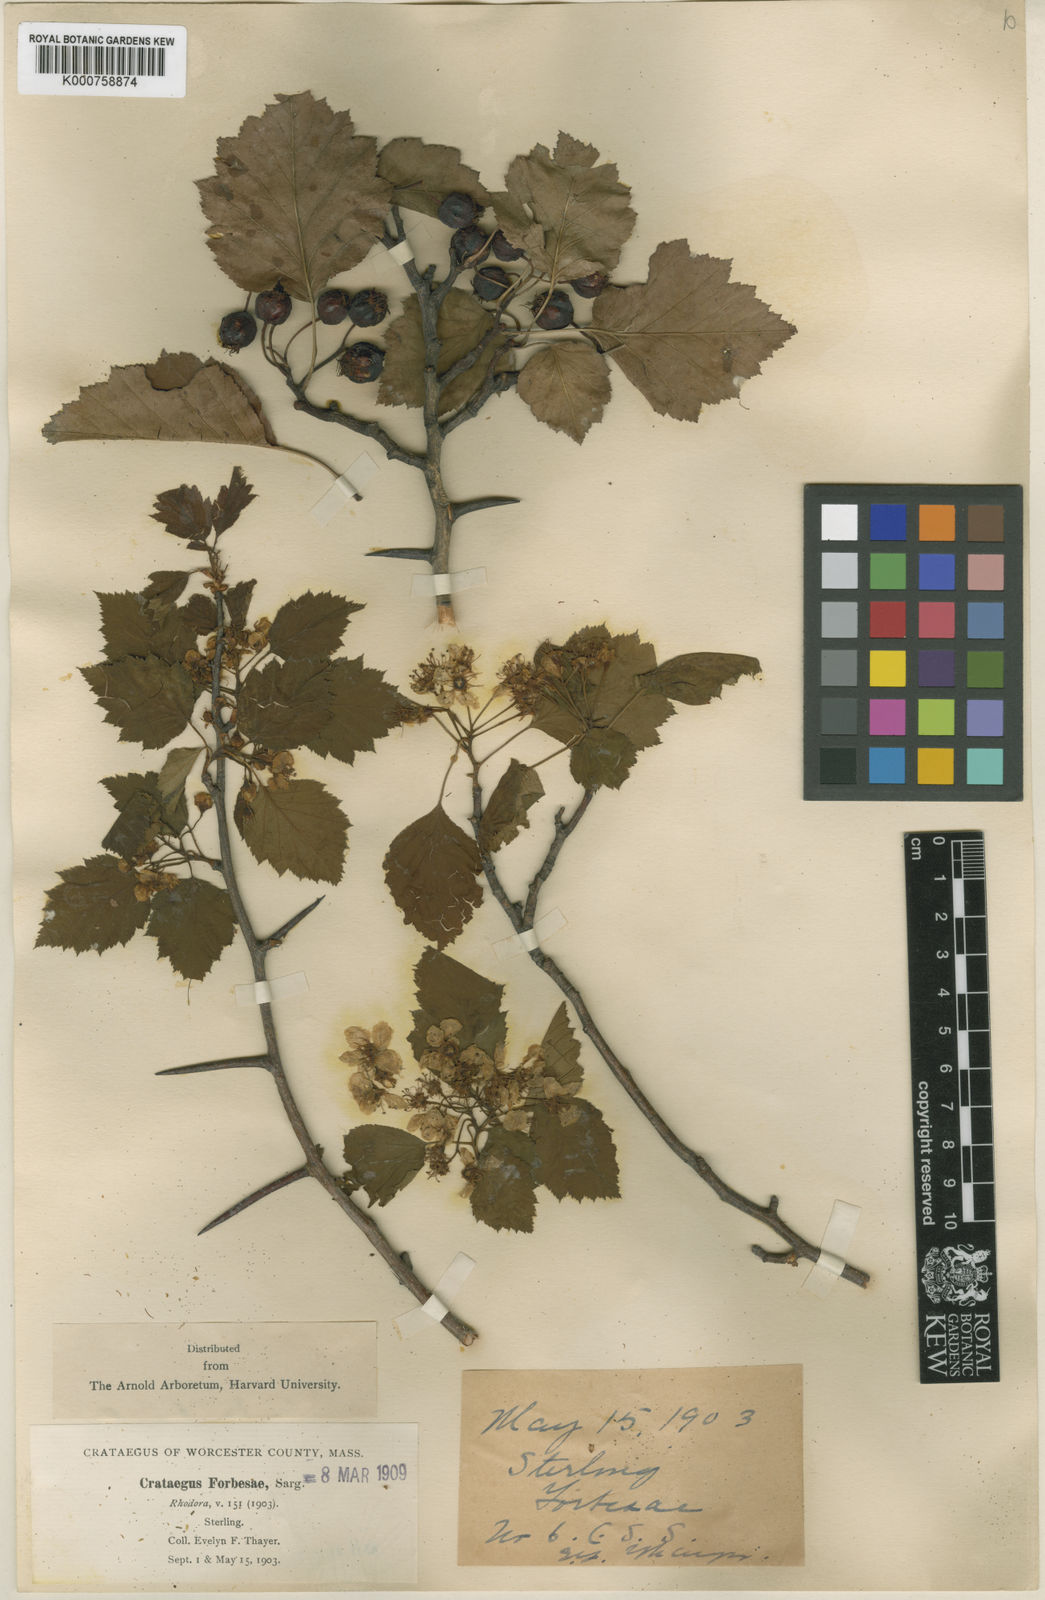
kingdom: Plantae
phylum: Tracheophyta
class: Magnoliopsida
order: Rosales
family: Rosaceae
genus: Crataegus
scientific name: Crataegus
